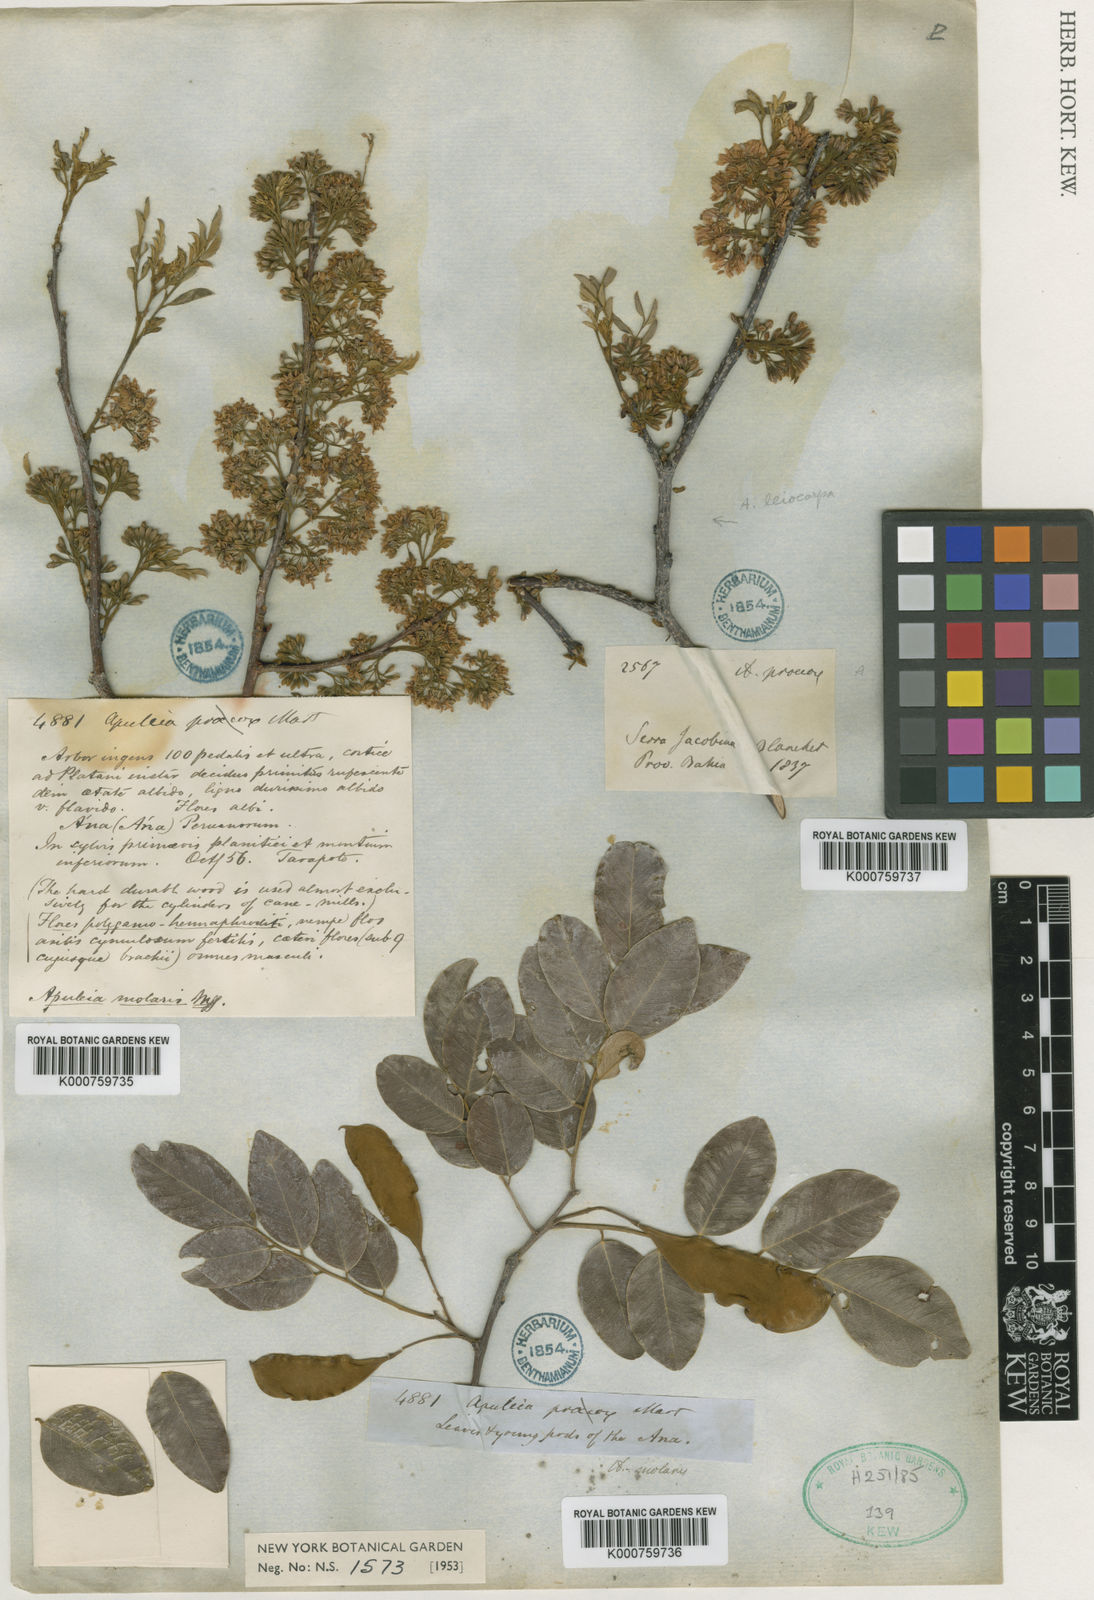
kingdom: Plantae
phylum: Tracheophyta
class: Magnoliopsida
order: Fabales
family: Fabaceae
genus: Apuleia
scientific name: Apuleia
